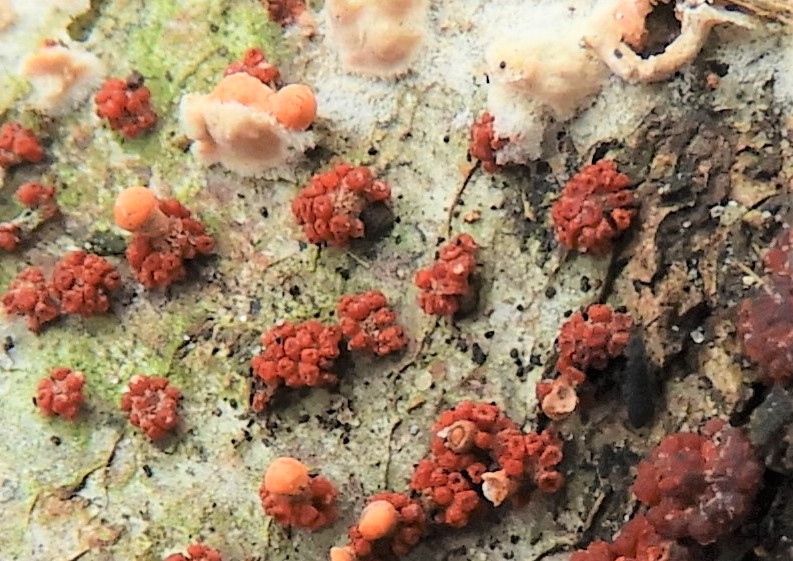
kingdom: Fungi
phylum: Ascomycota
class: Sordariomycetes
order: Hypocreales
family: Nectriaceae
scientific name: Nectriaceae
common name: cinnobersvampfamilien
